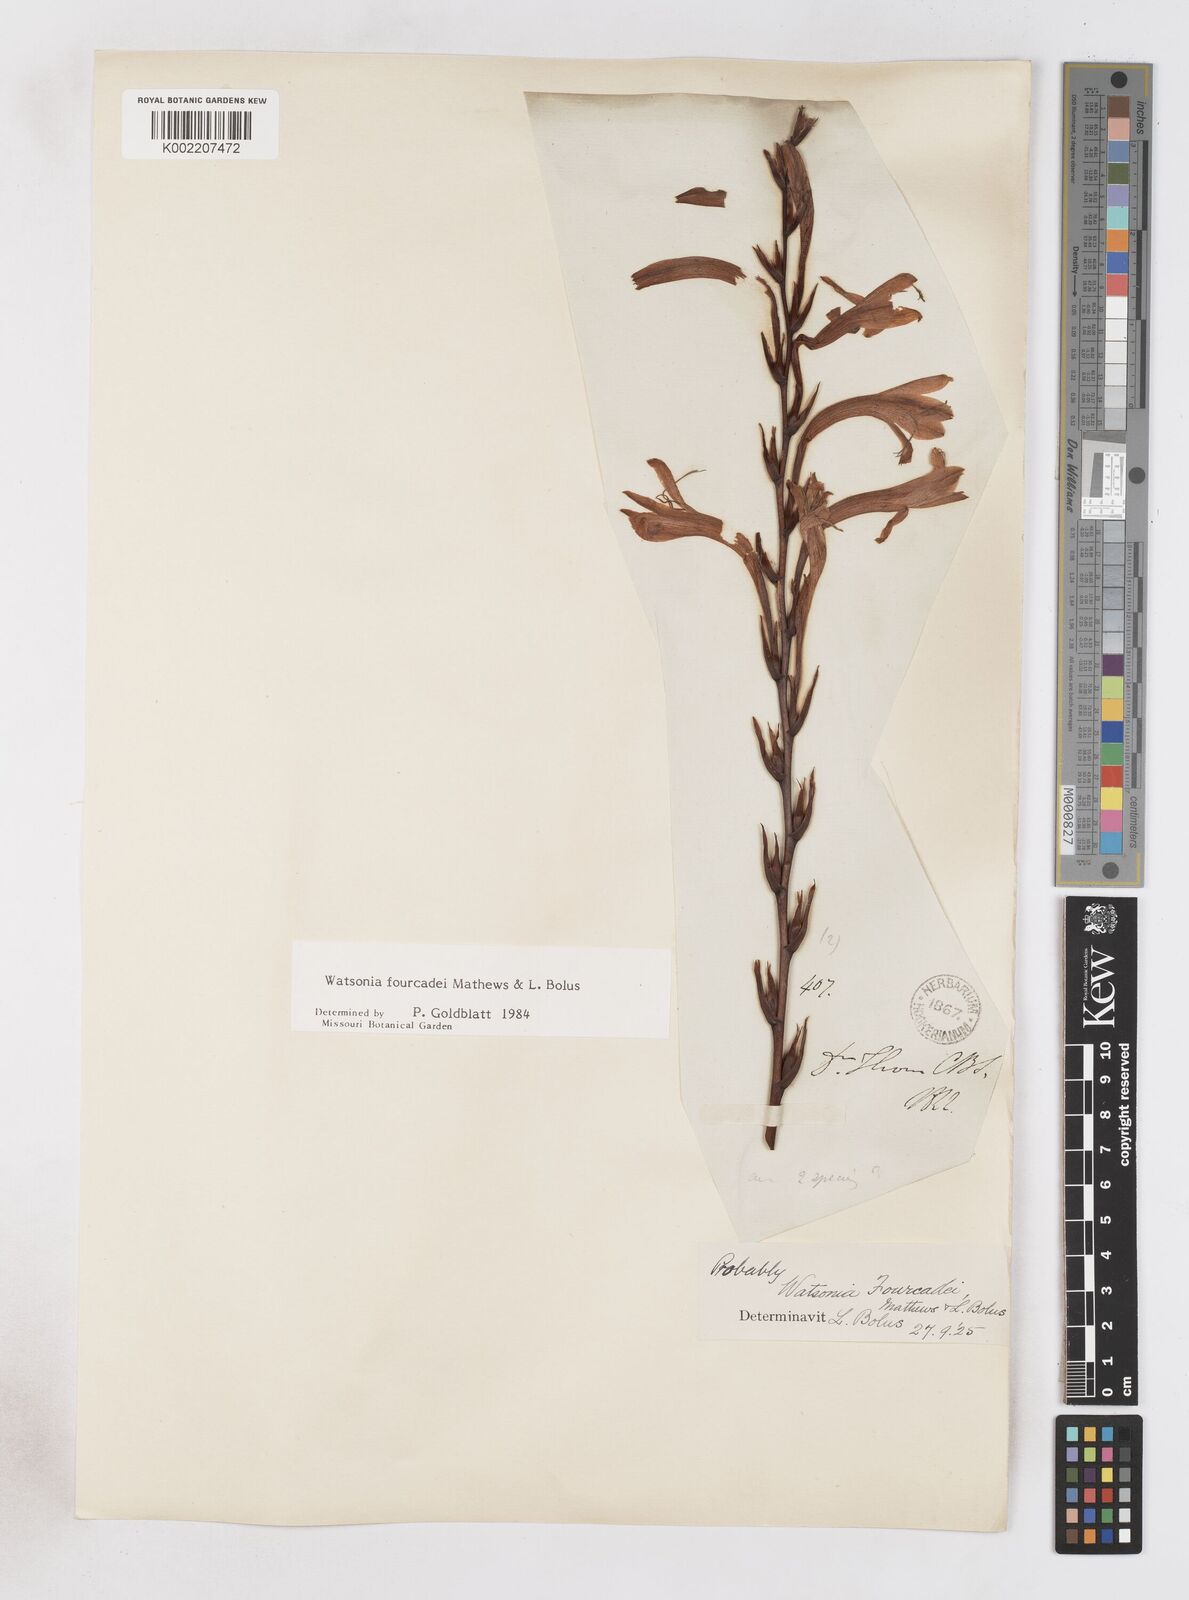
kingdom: Plantae
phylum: Tracheophyta
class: Liliopsida
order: Asparagales
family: Iridaceae
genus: Watsonia
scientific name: Watsonia fourcadei
